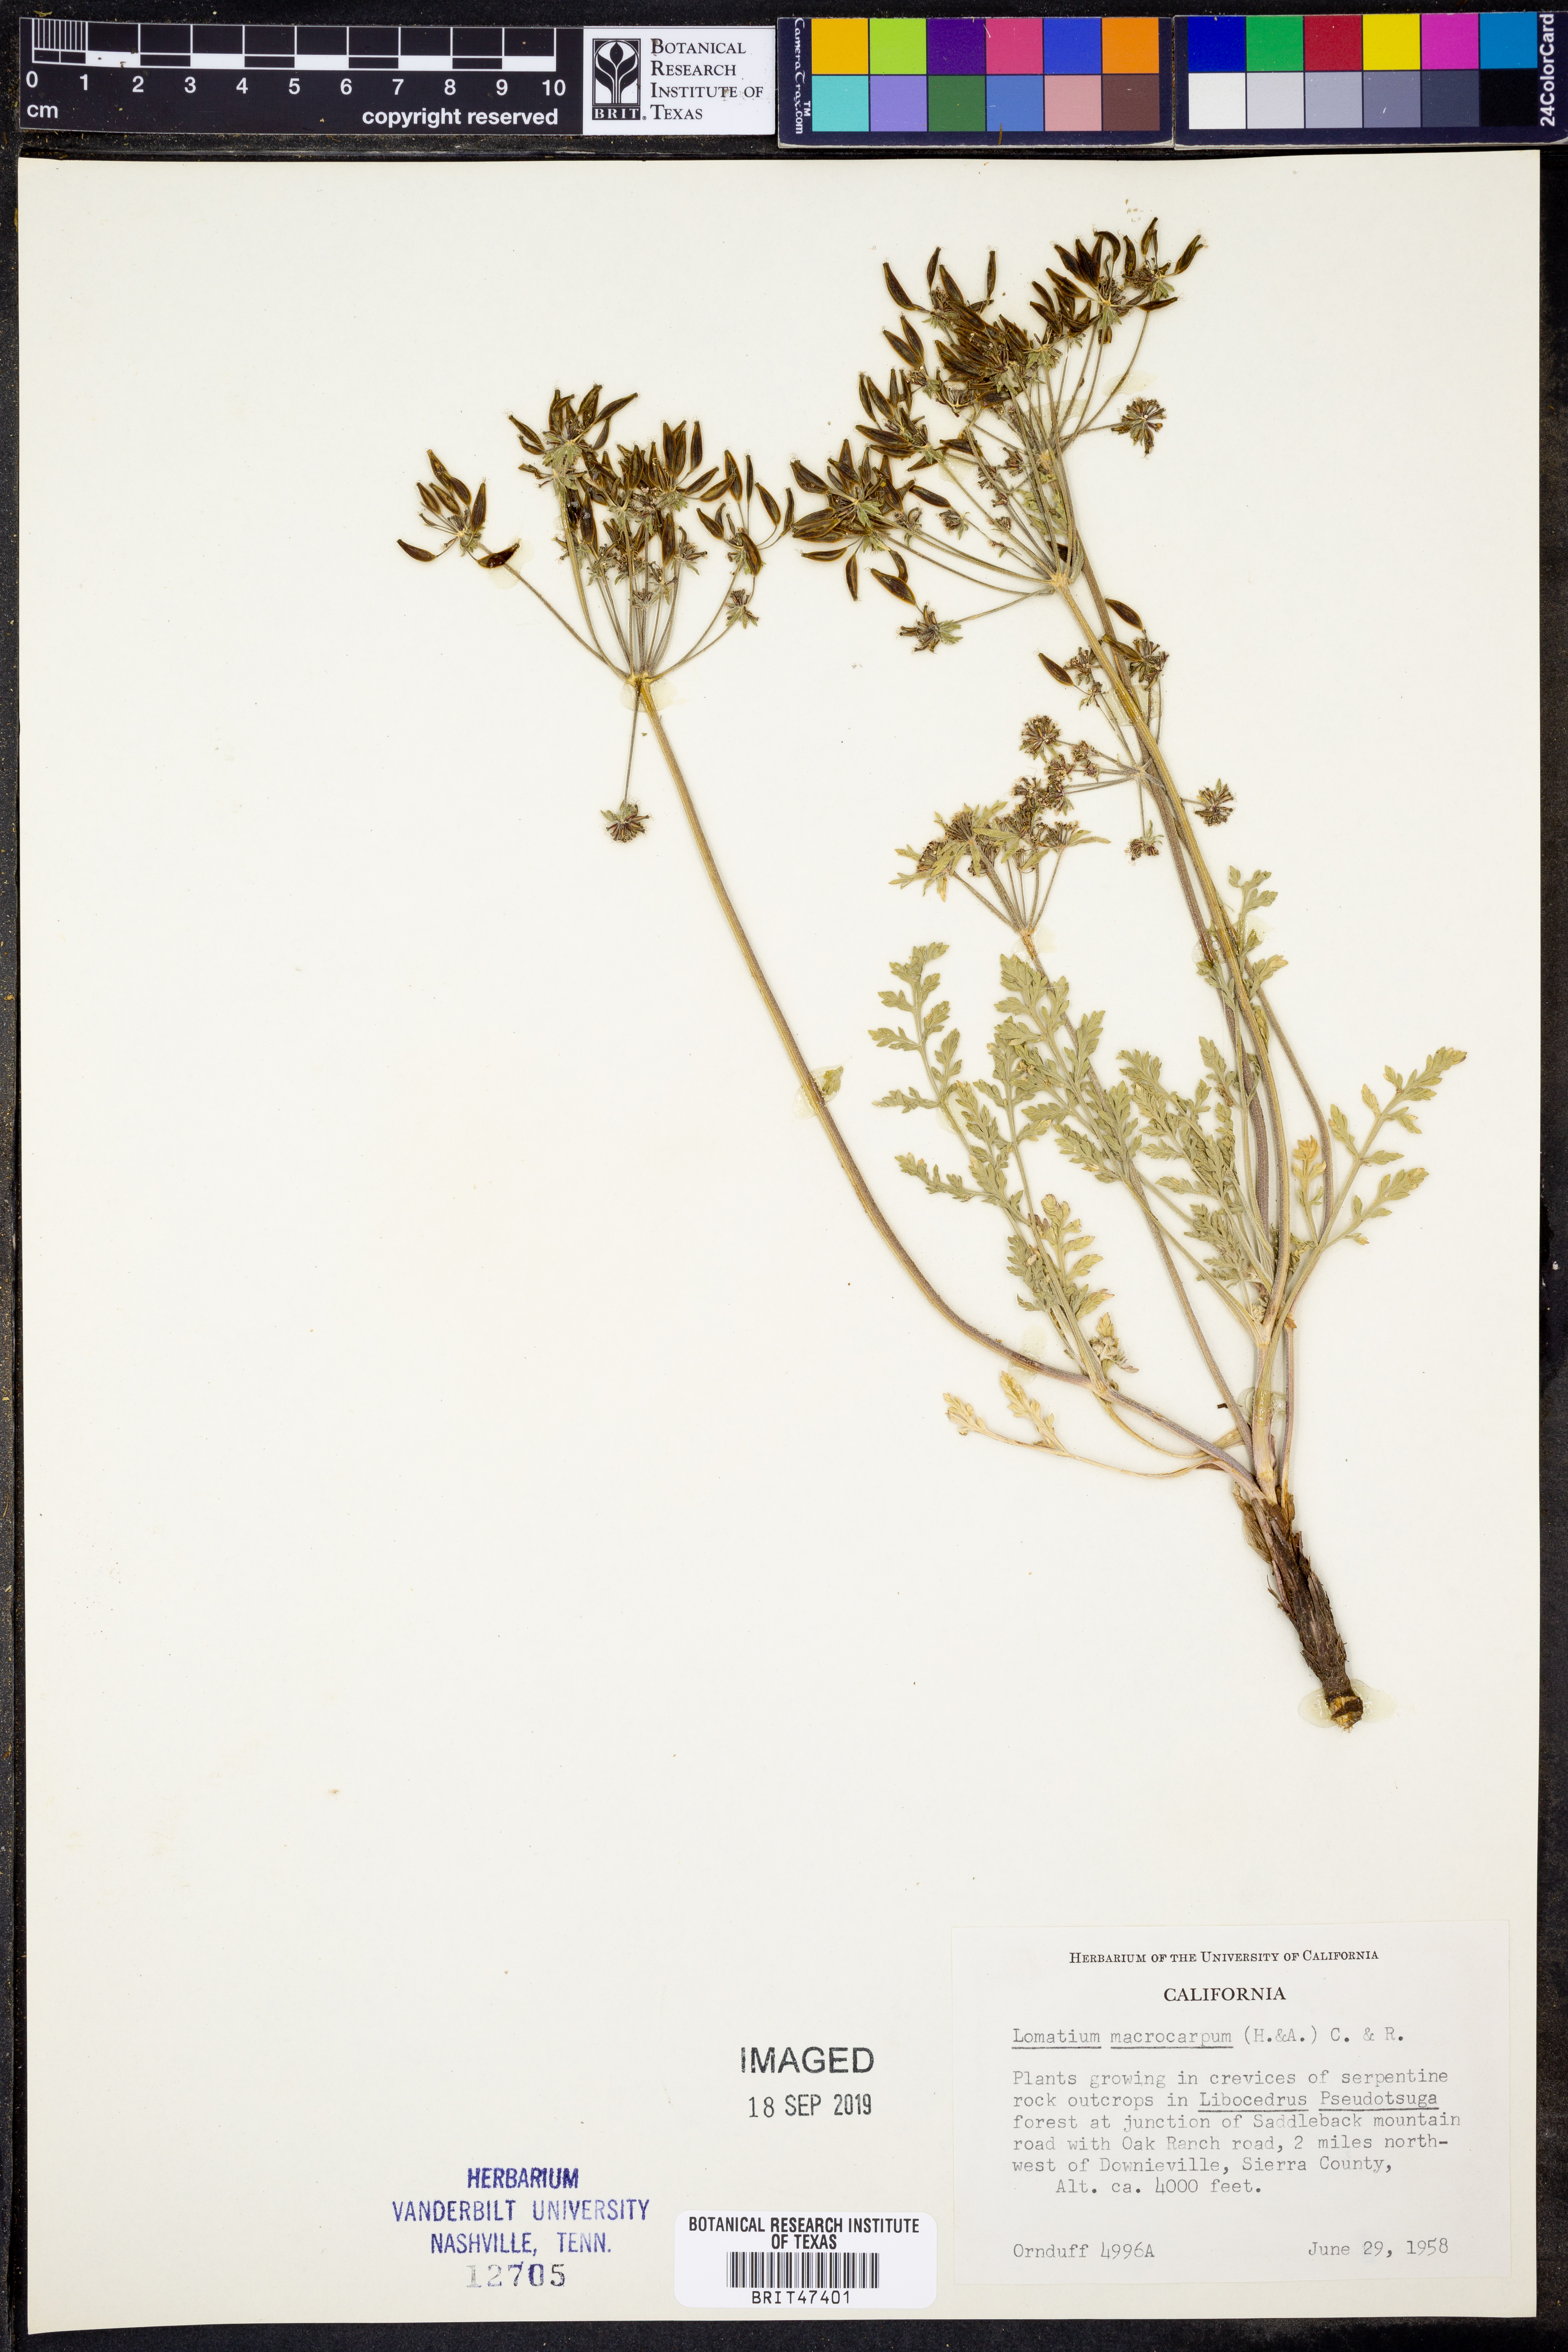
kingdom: Plantae
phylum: Tracheophyta
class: Magnoliopsida
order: Apiales
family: Apiaceae
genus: Lomatium
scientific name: Lomatium macrocarpum
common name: Big-seed biscuitroot
